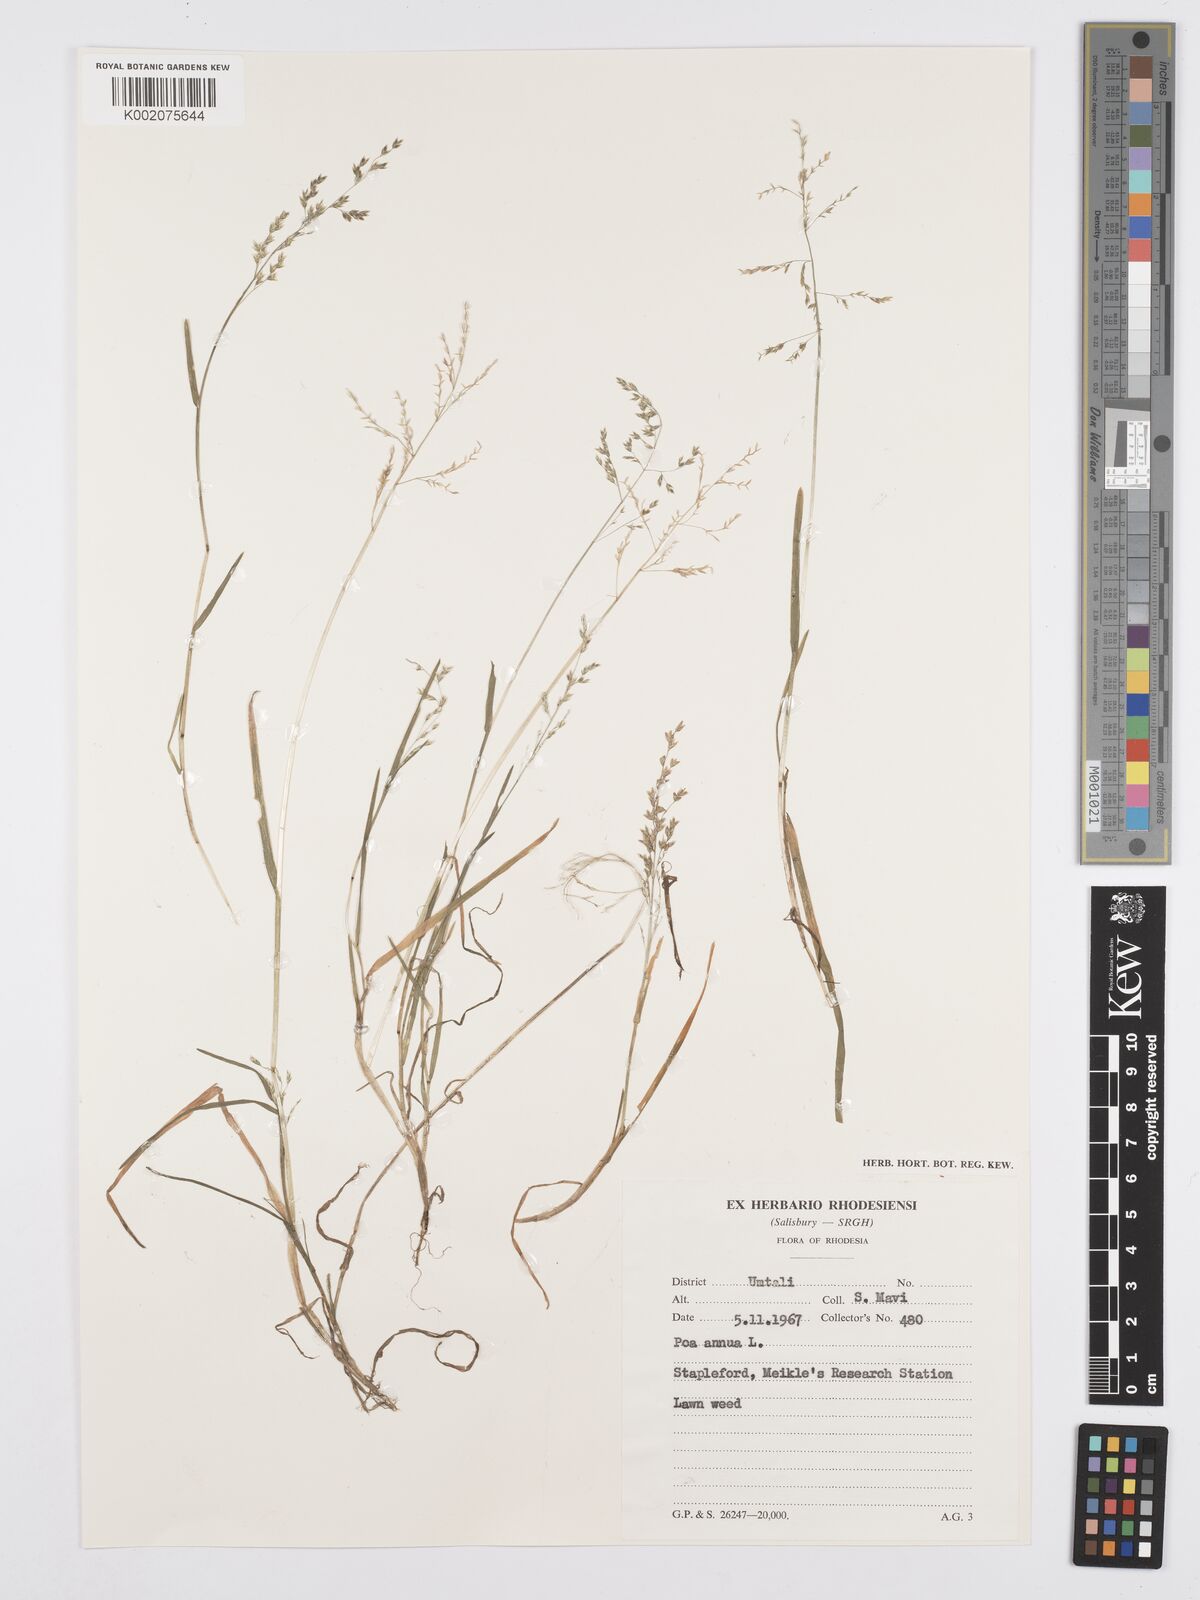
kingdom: Plantae
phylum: Tracheophyta
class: Liliopsida
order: Poales
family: Poaceae
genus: Poa
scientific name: Poa annua
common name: Annual bluegrass
